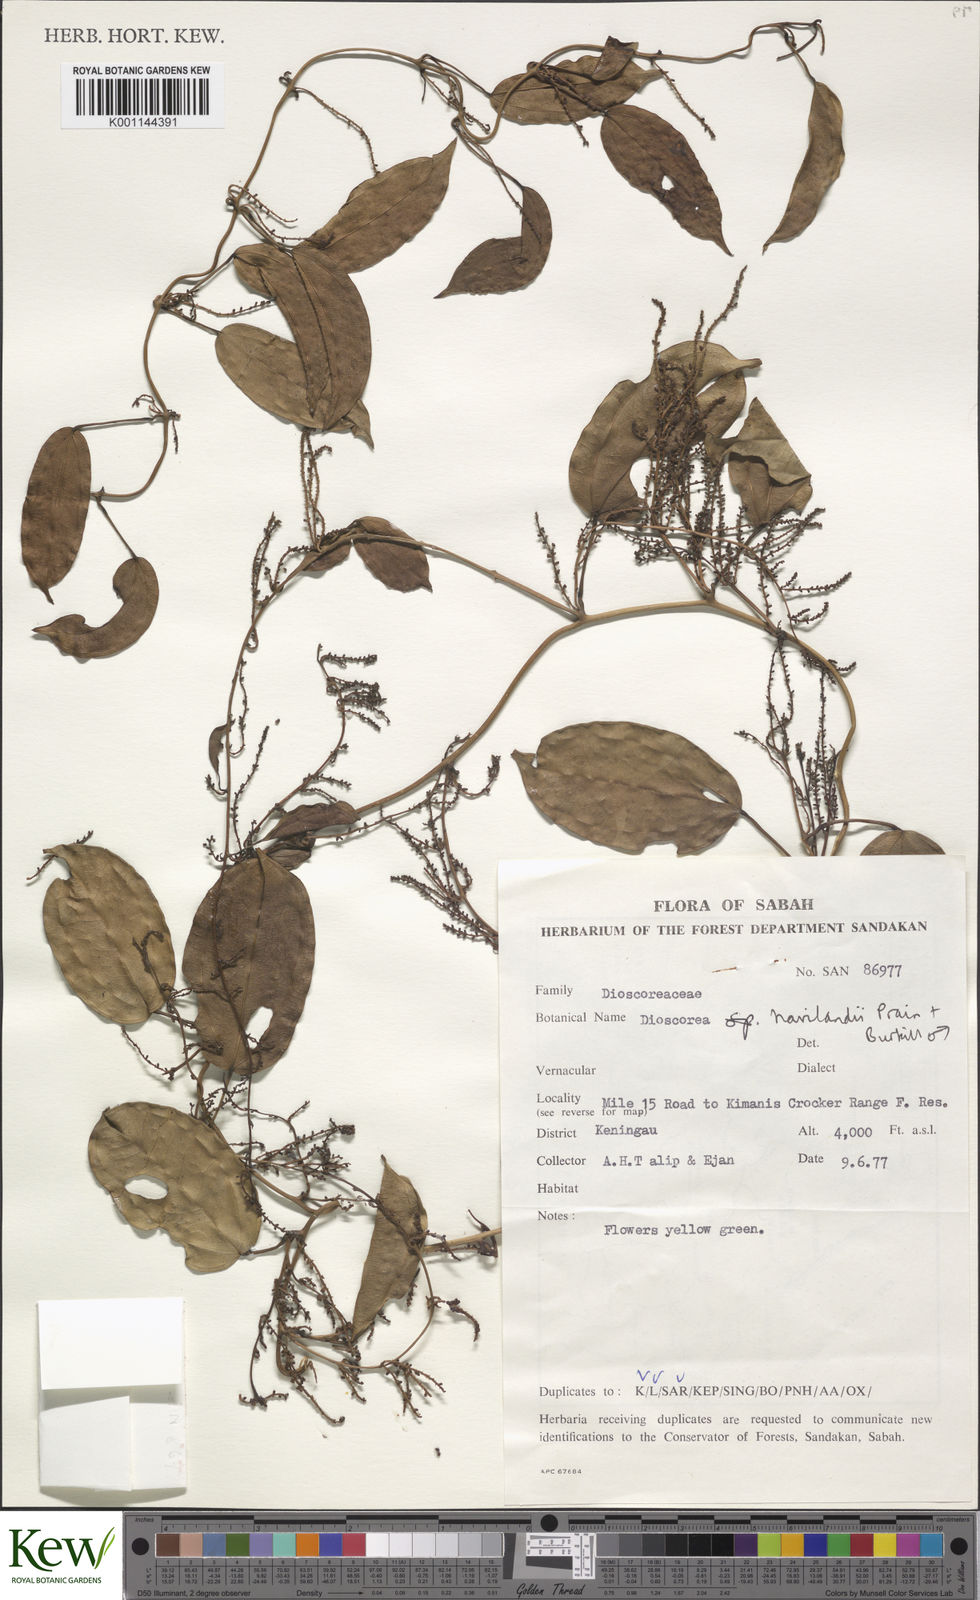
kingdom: Plantae
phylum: Tracheophyta
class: Liliopsida
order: Dioscoreales
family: Dioscoreaceae
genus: Dioscorea
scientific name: Dioscorea havilandii
